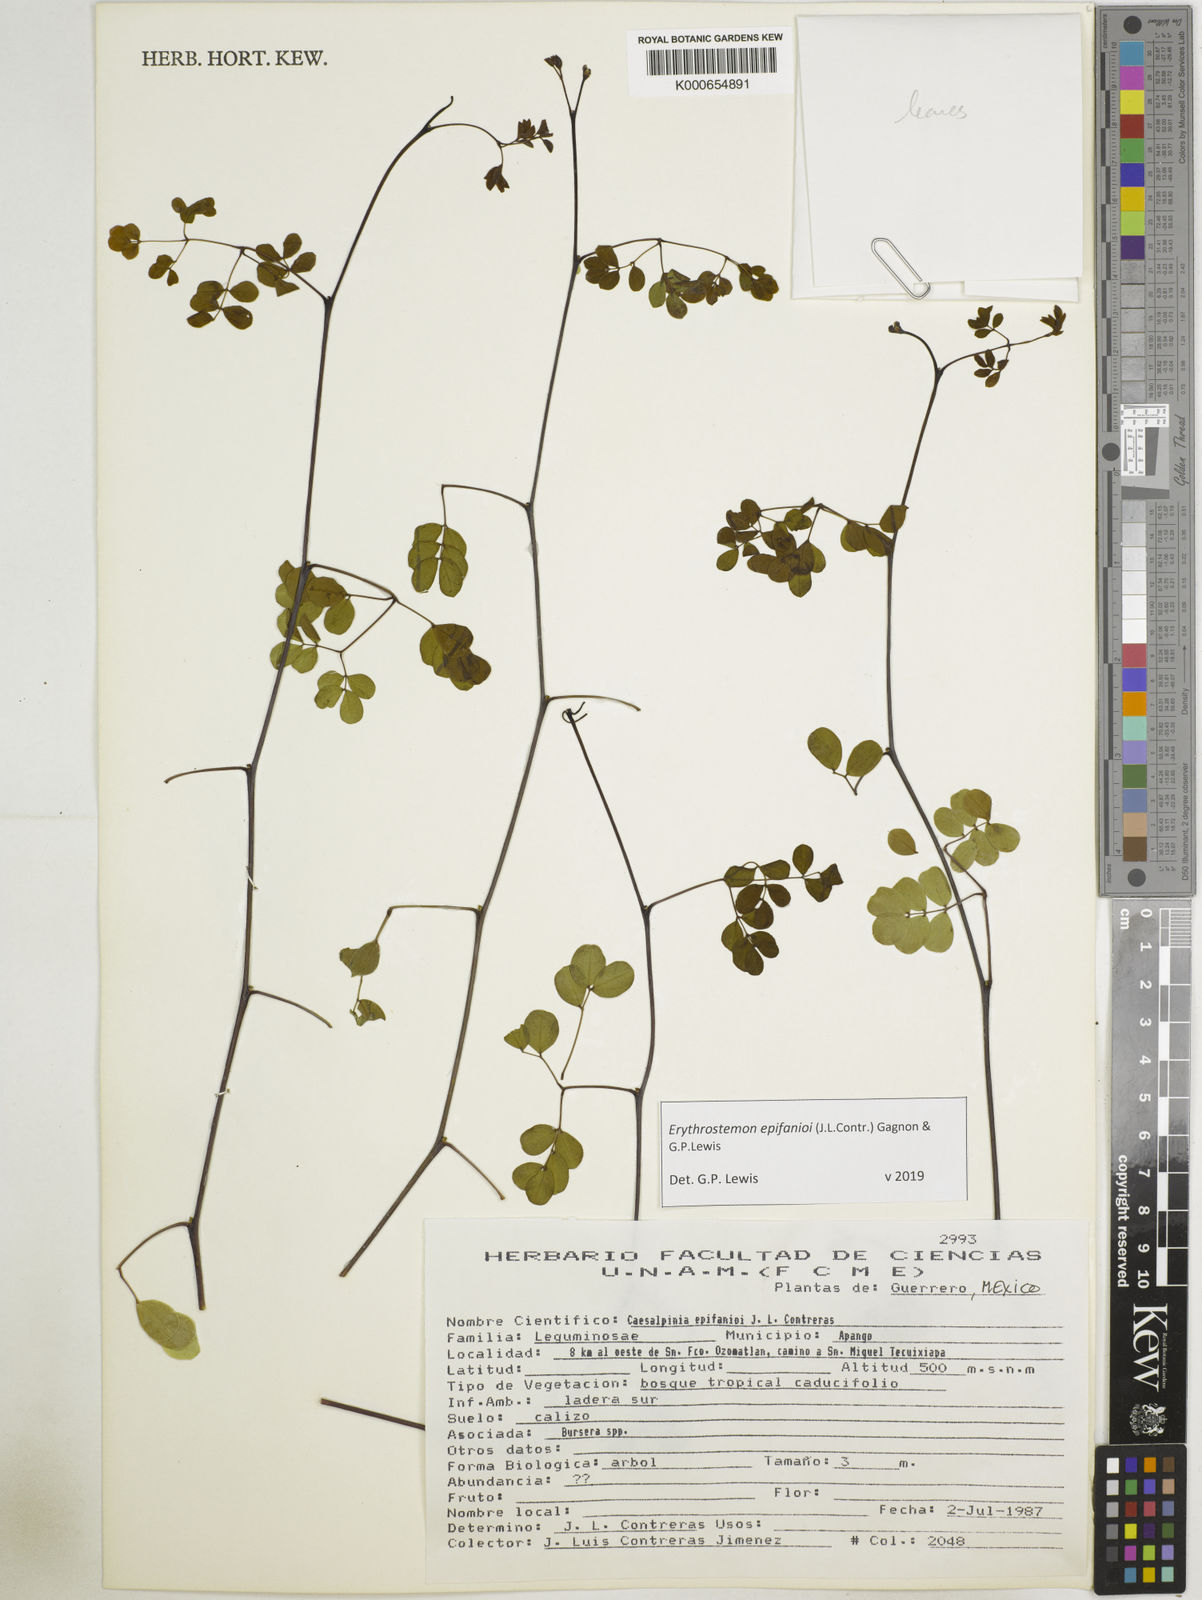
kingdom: Plantae
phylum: Tracheophyta
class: Magnoliopsida
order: Fabales
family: Fabaceae
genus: Erythrostemon
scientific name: Erythrostemon epifanioi
